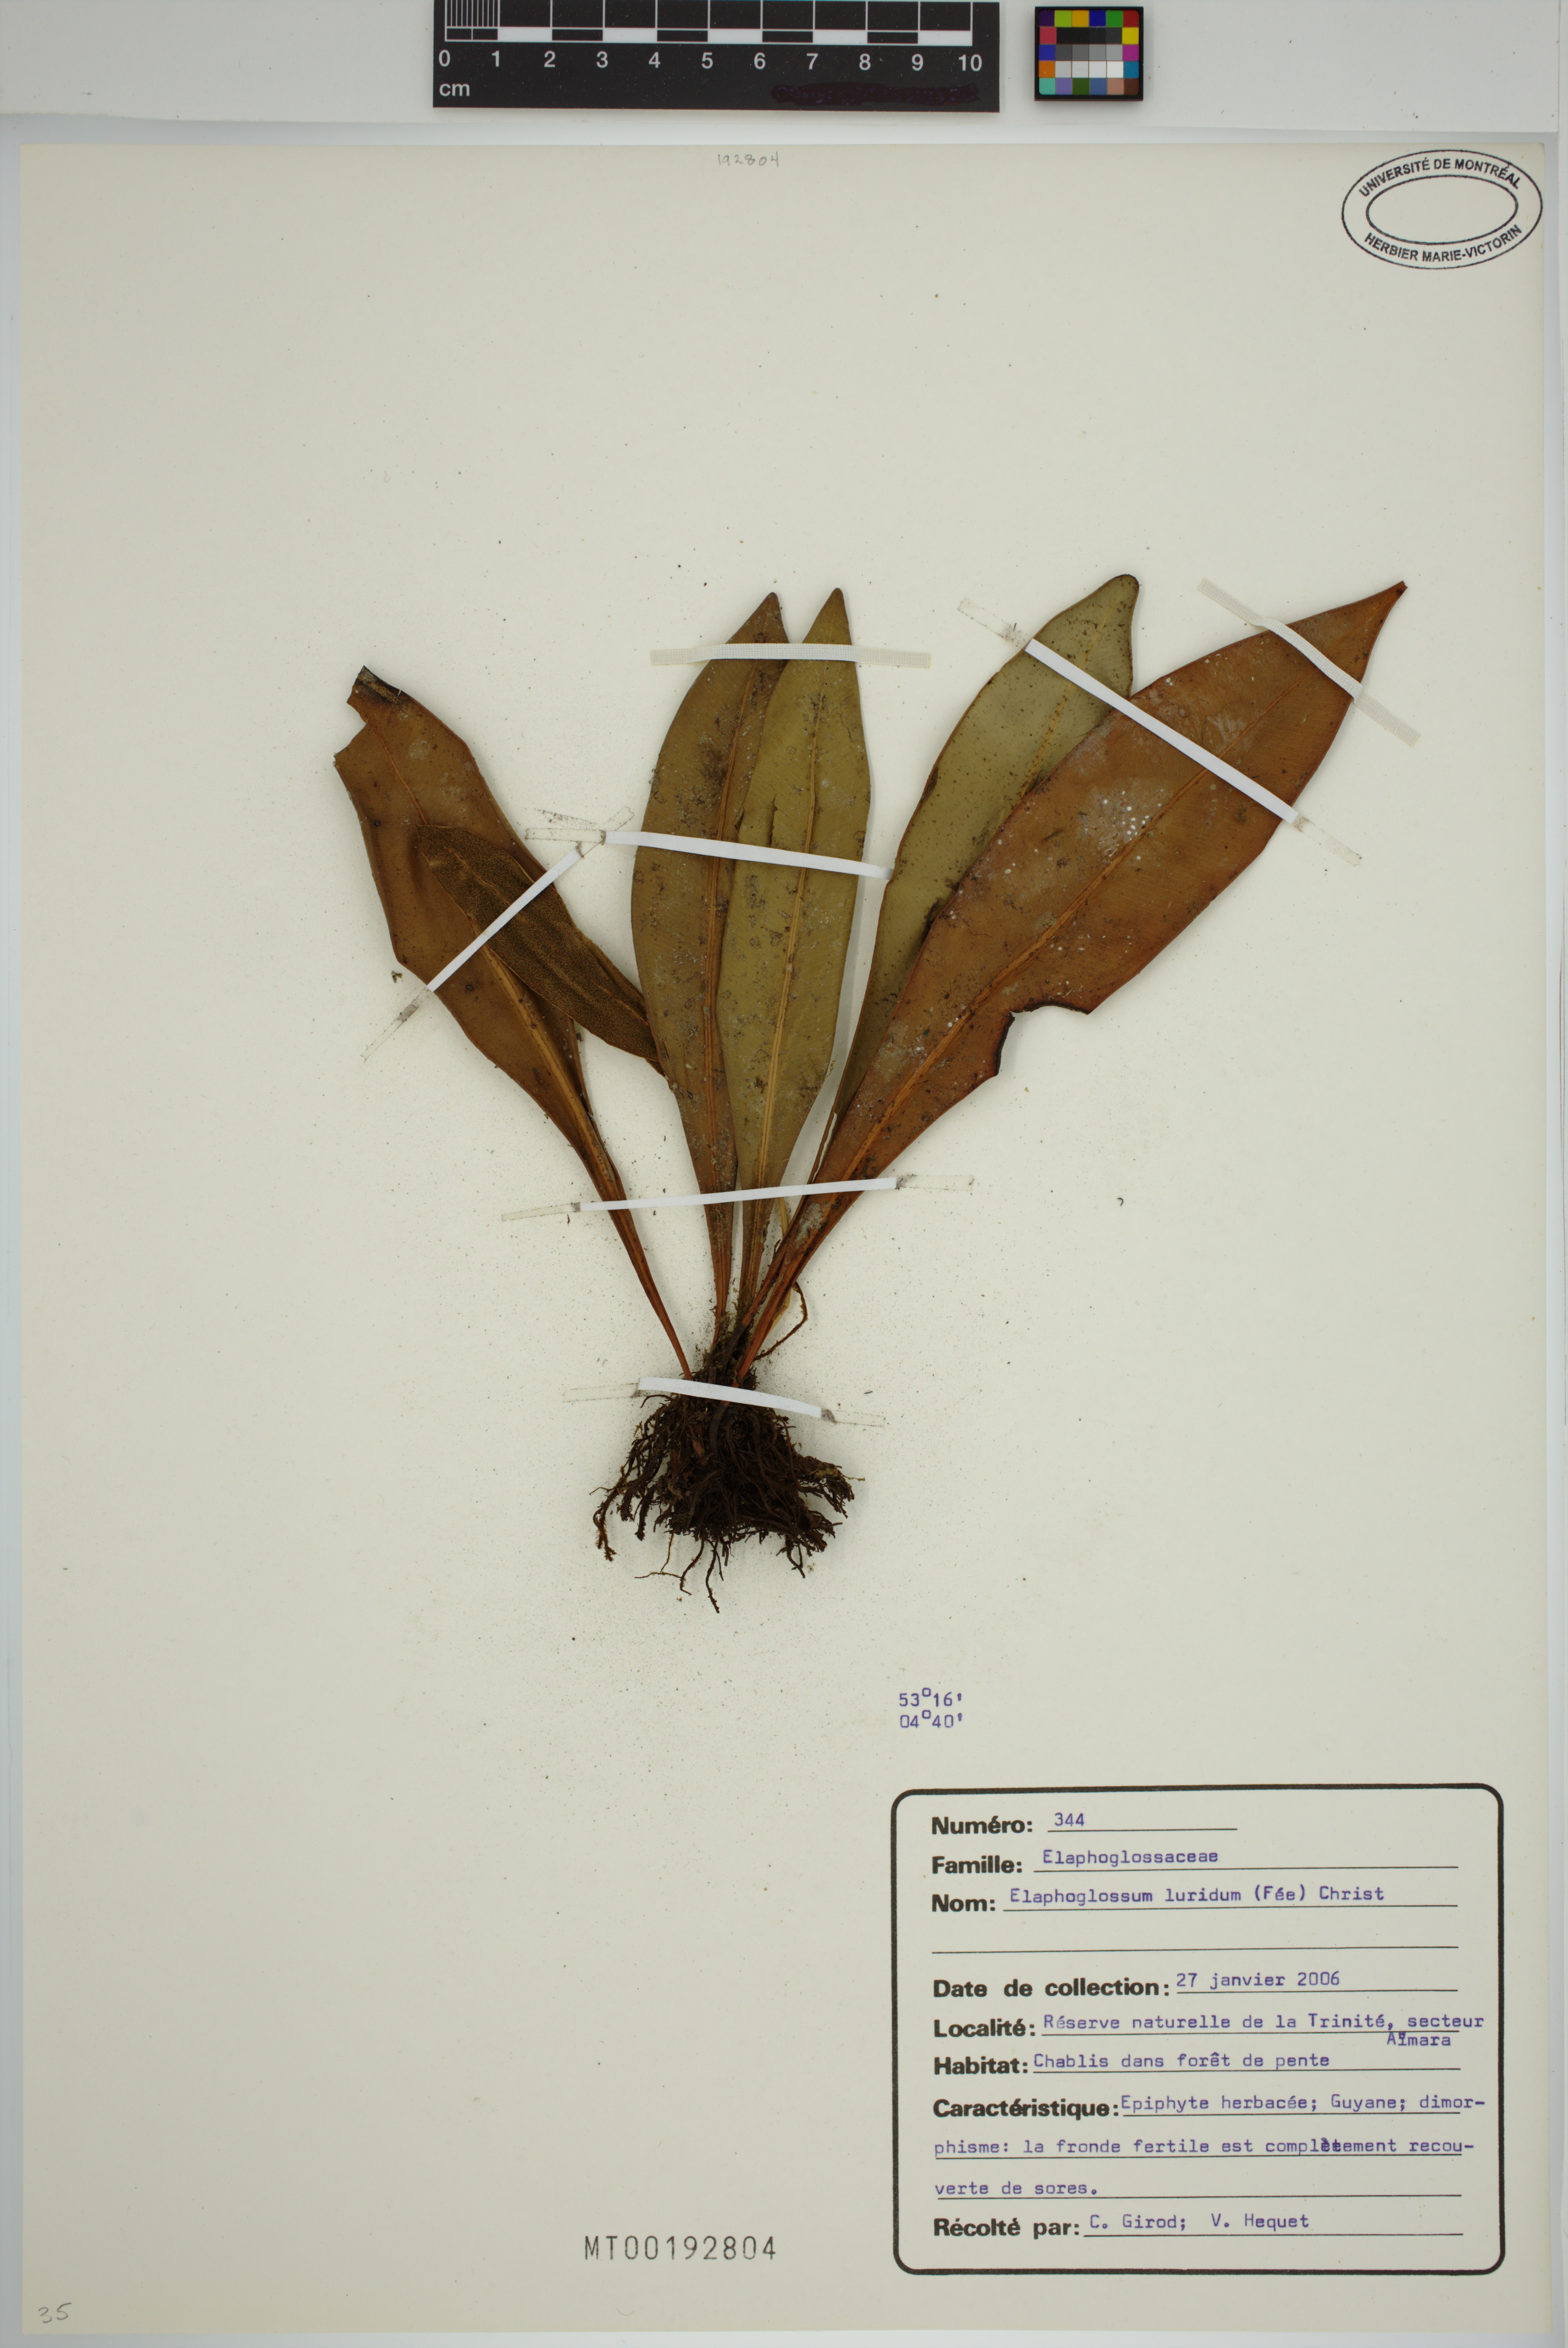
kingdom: Plantae
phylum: Tracheophyta
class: Polypodiopsida
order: Polypodiales
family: Dryopteridaceae
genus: Elaphoglossum
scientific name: Elaphoglossum luridum
